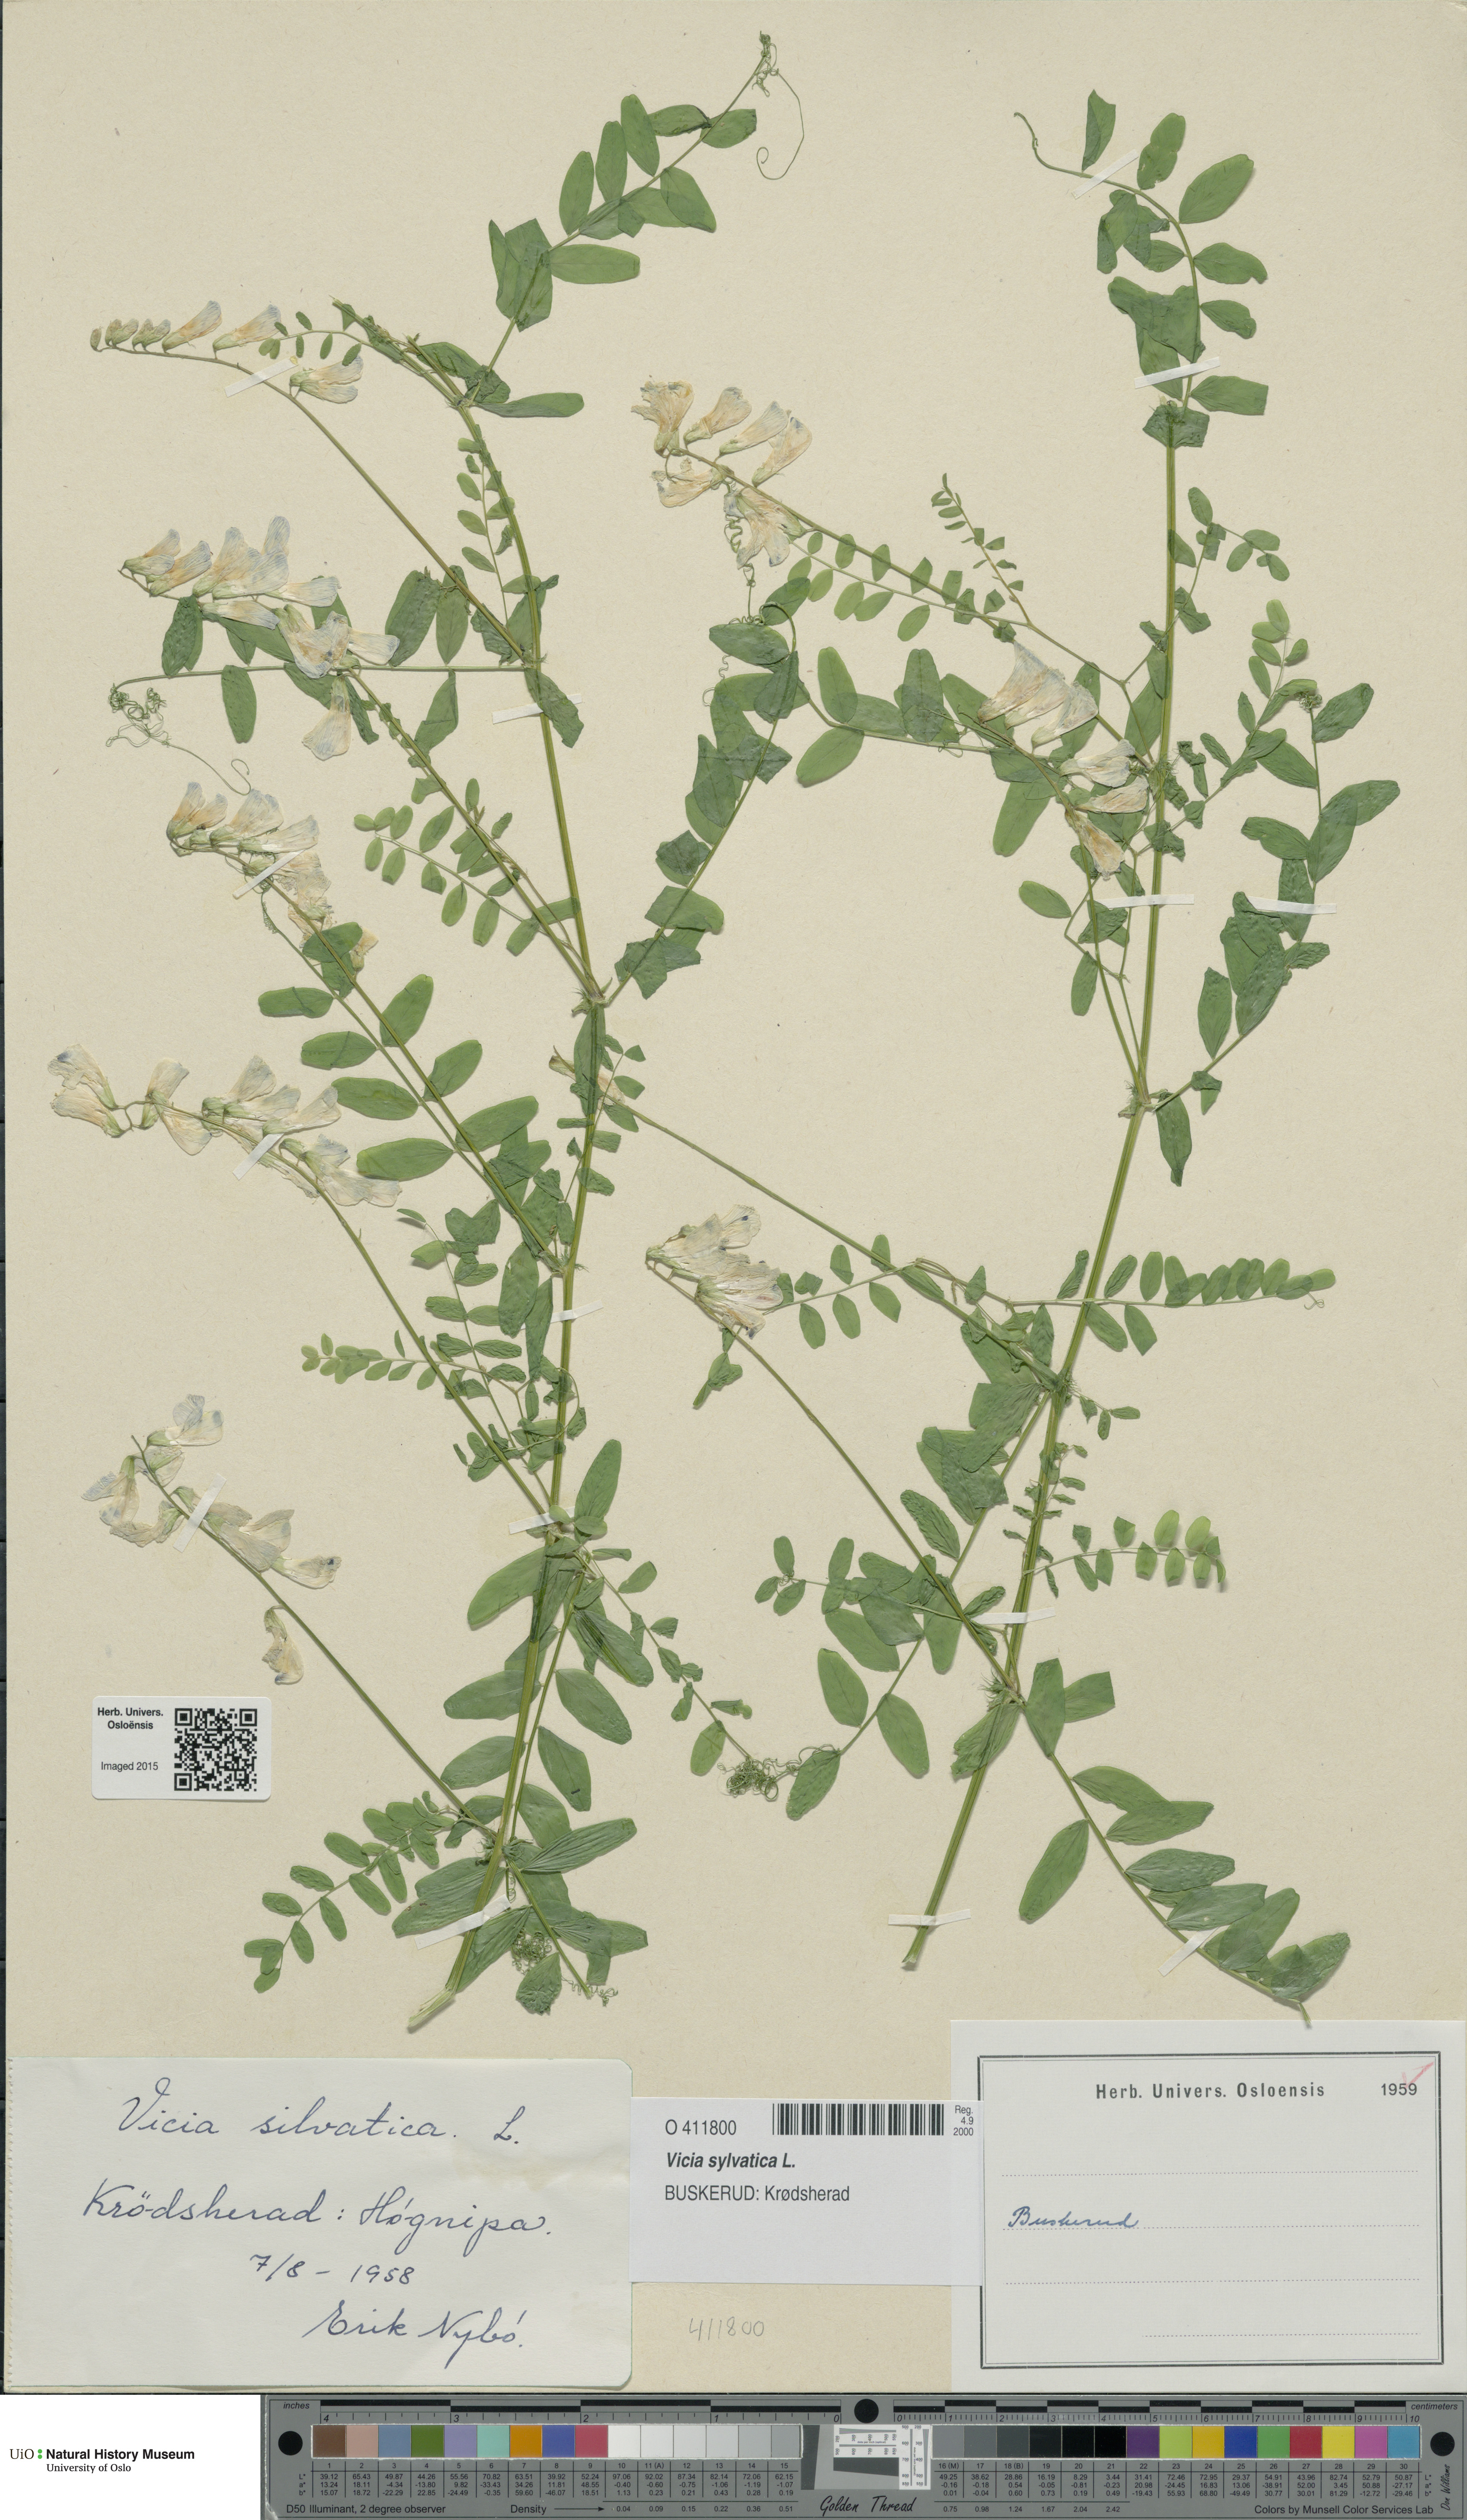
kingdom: Plantae
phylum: Tracheophyta
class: Magnoliopsida
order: Fabales
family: Fabaceae
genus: Vicia
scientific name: Vicia sylvatica
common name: Wood vetch
